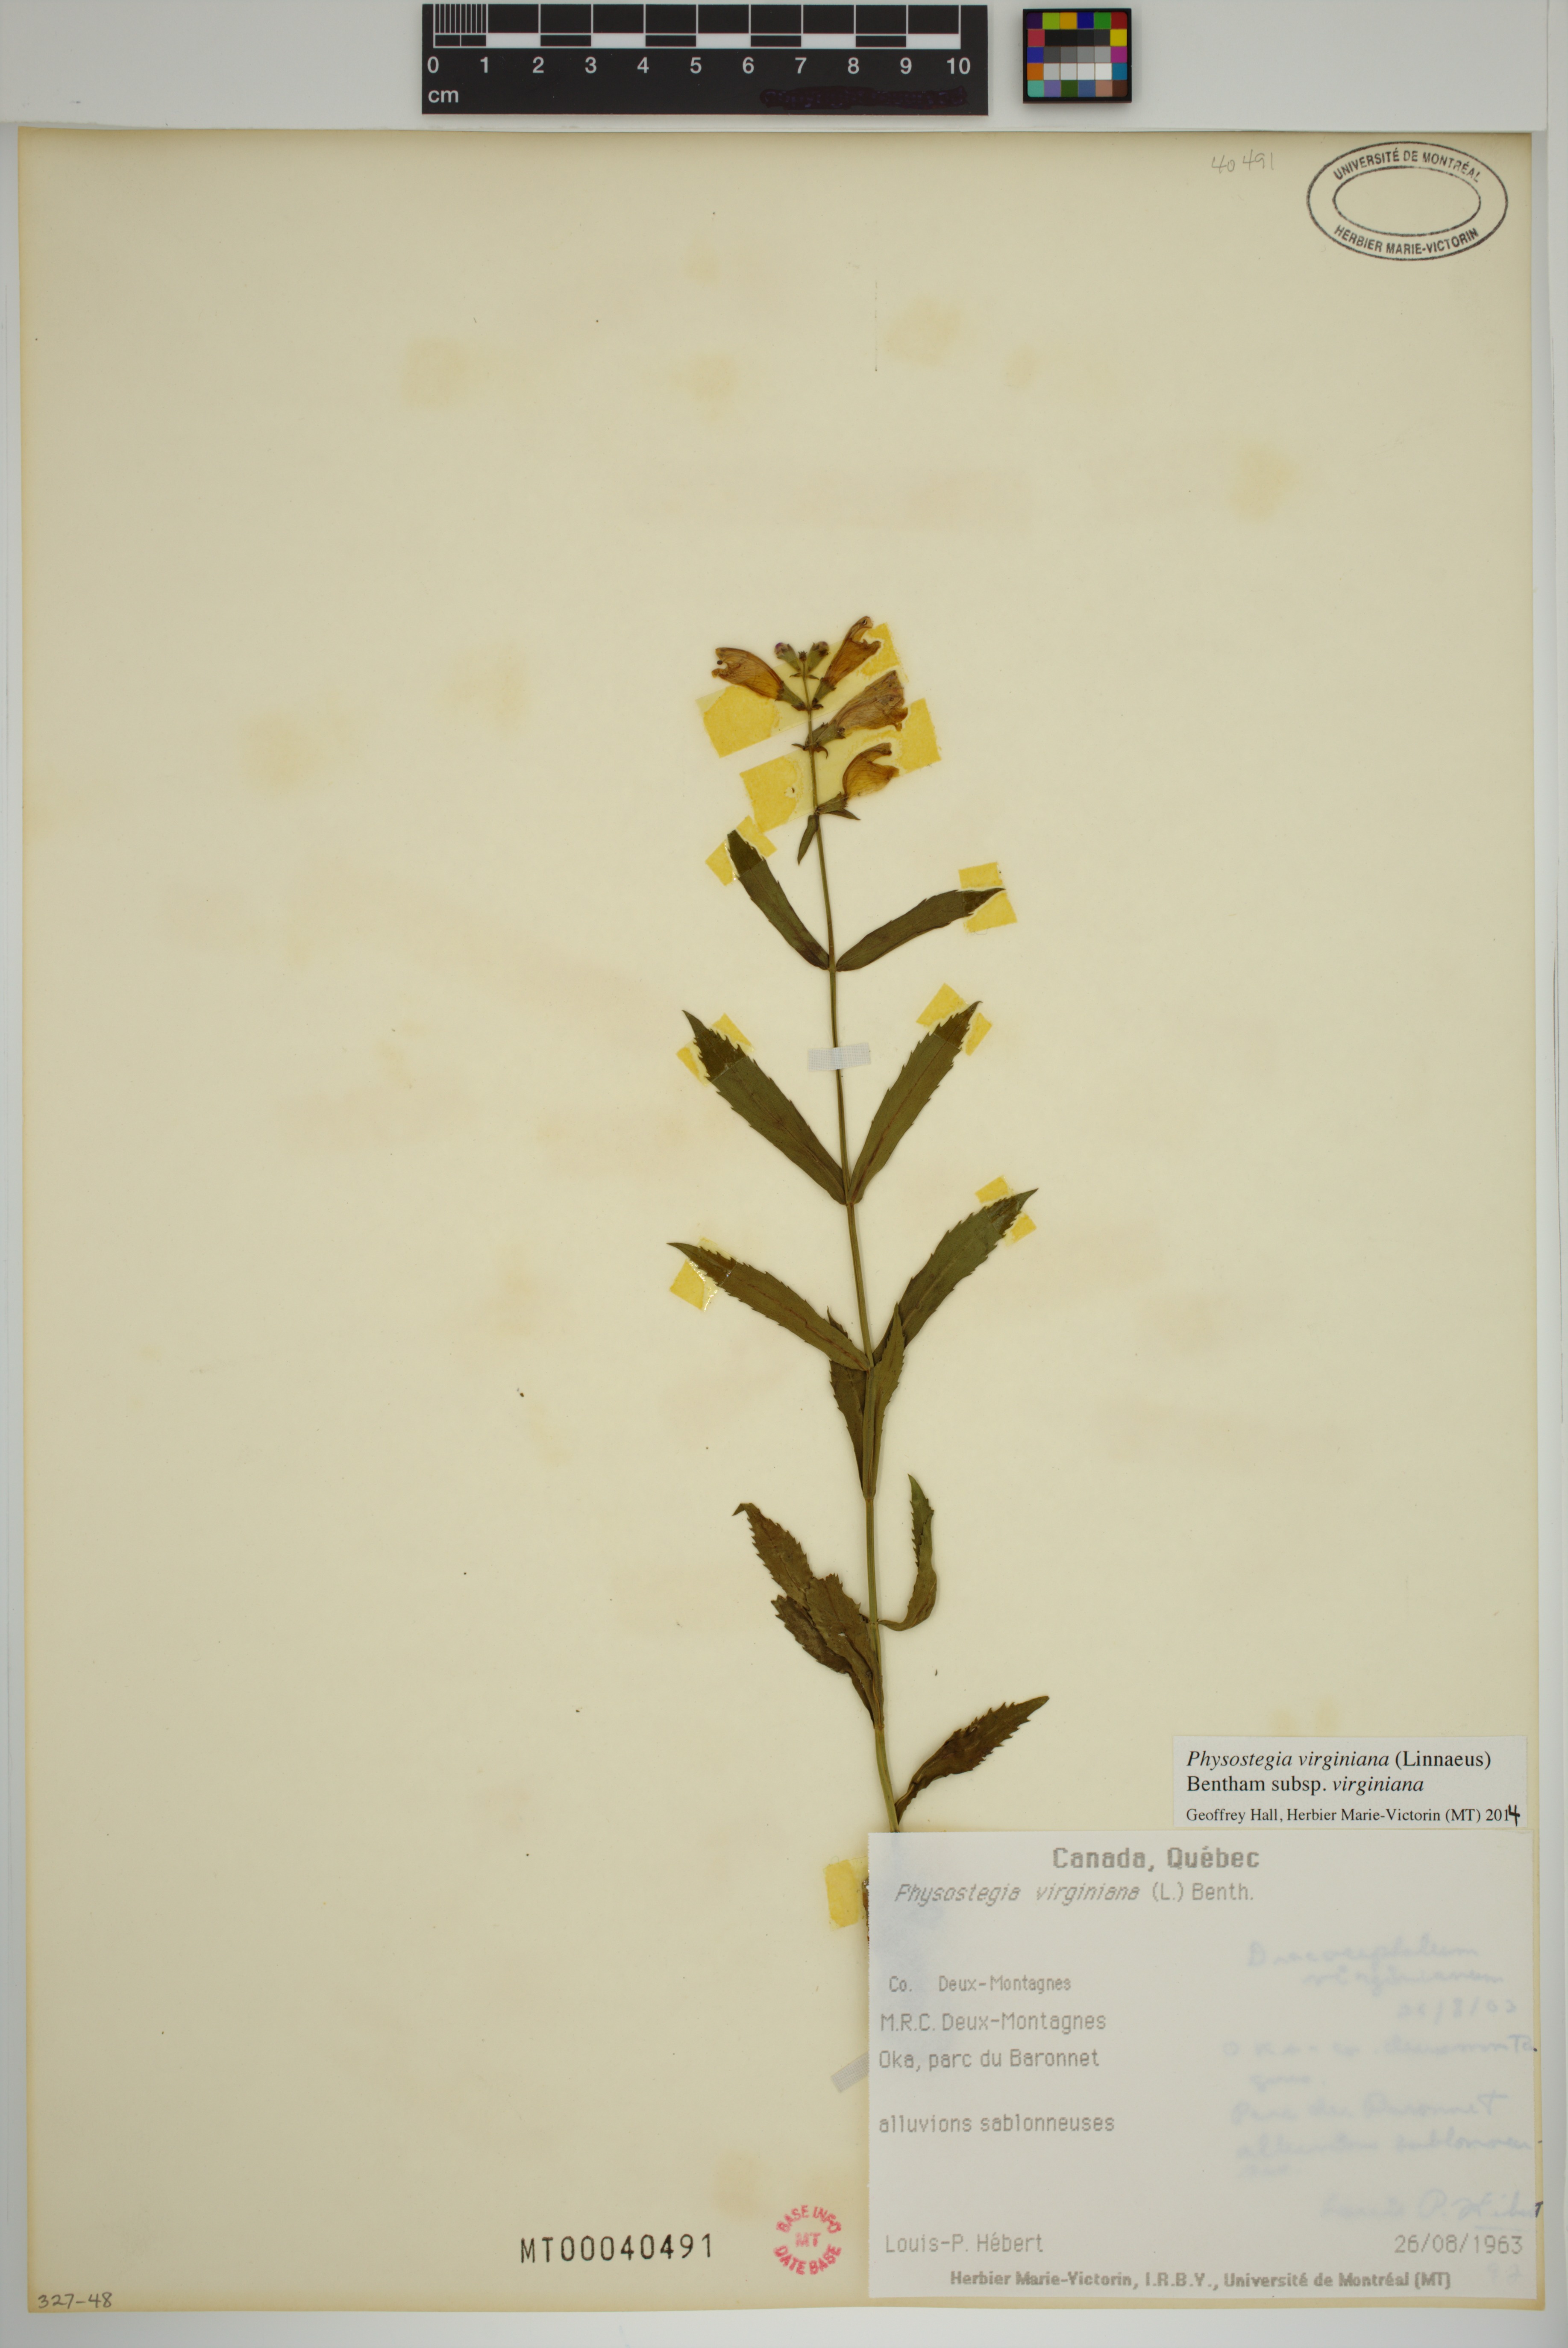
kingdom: Plantae
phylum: Tracheophyta
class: Magnoliopsida
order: Lamiales
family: Lamiaceae
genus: Physostegia
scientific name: Physostegia virginiana
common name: Obedient-plant
